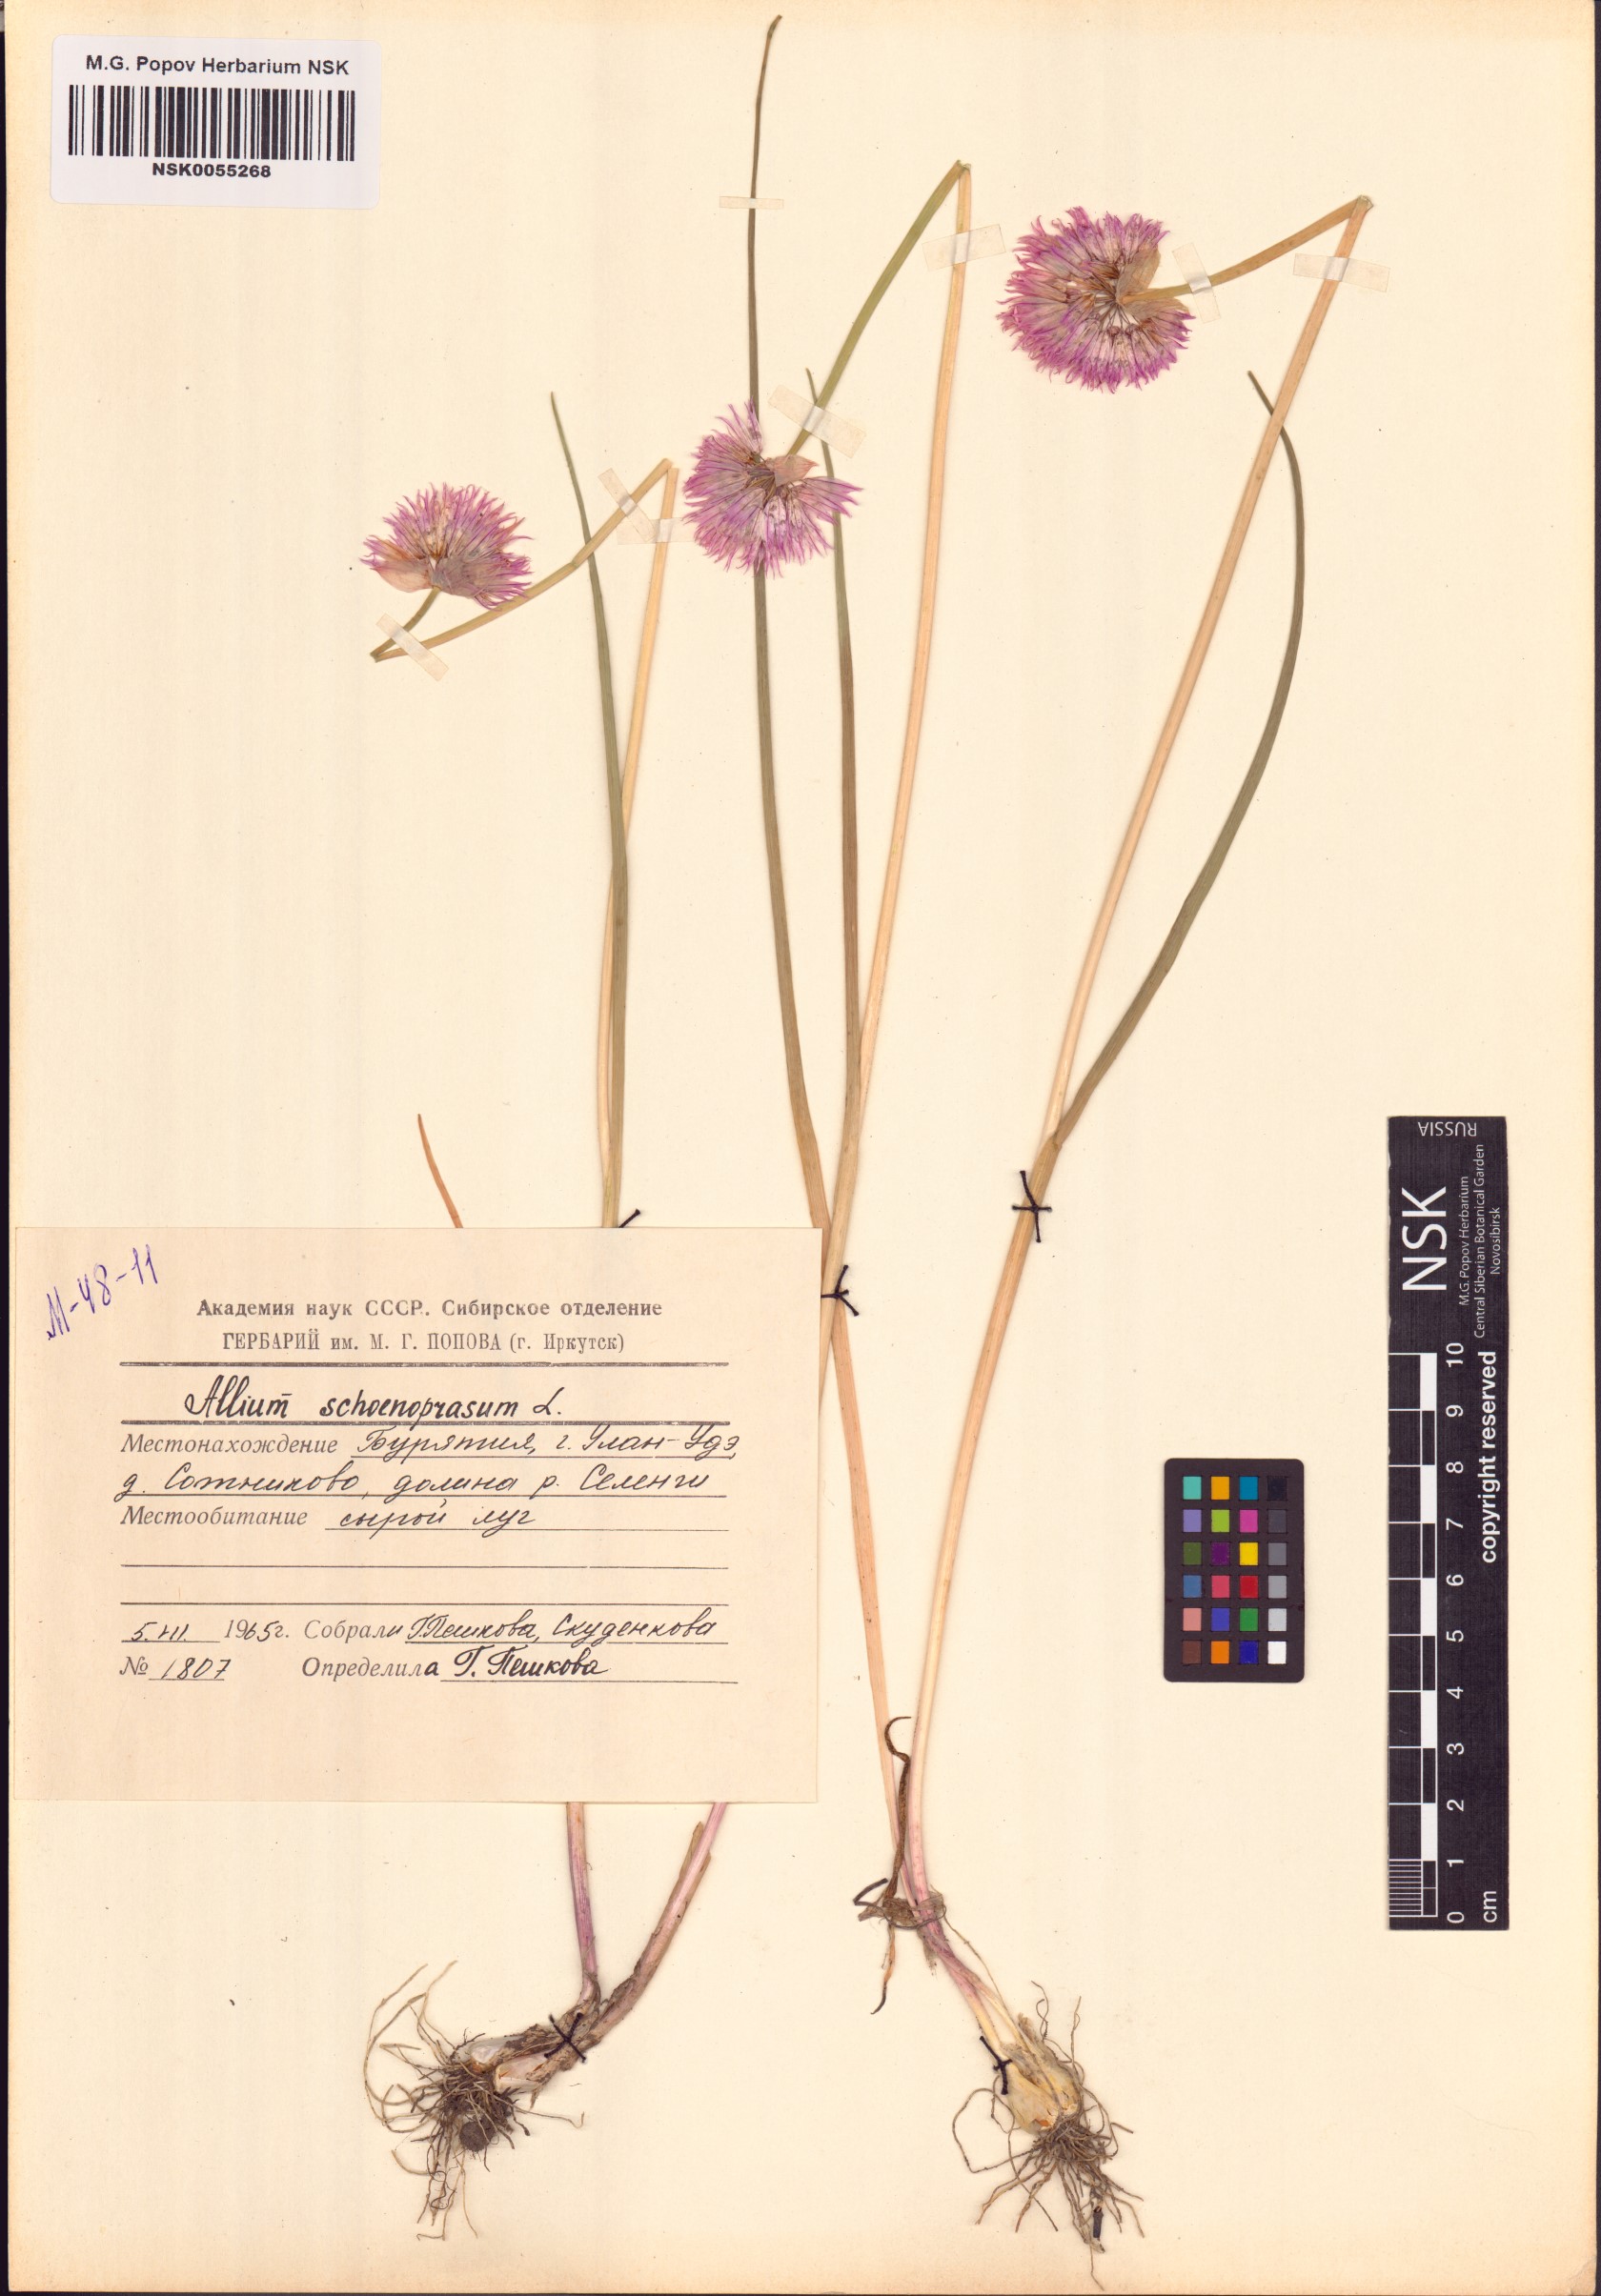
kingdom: Plantae
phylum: Tracheophyta
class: Liliopsida
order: Asparagales
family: Amaryllidaceae
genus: Allium
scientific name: Allium schoenoprasum
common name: Chives
